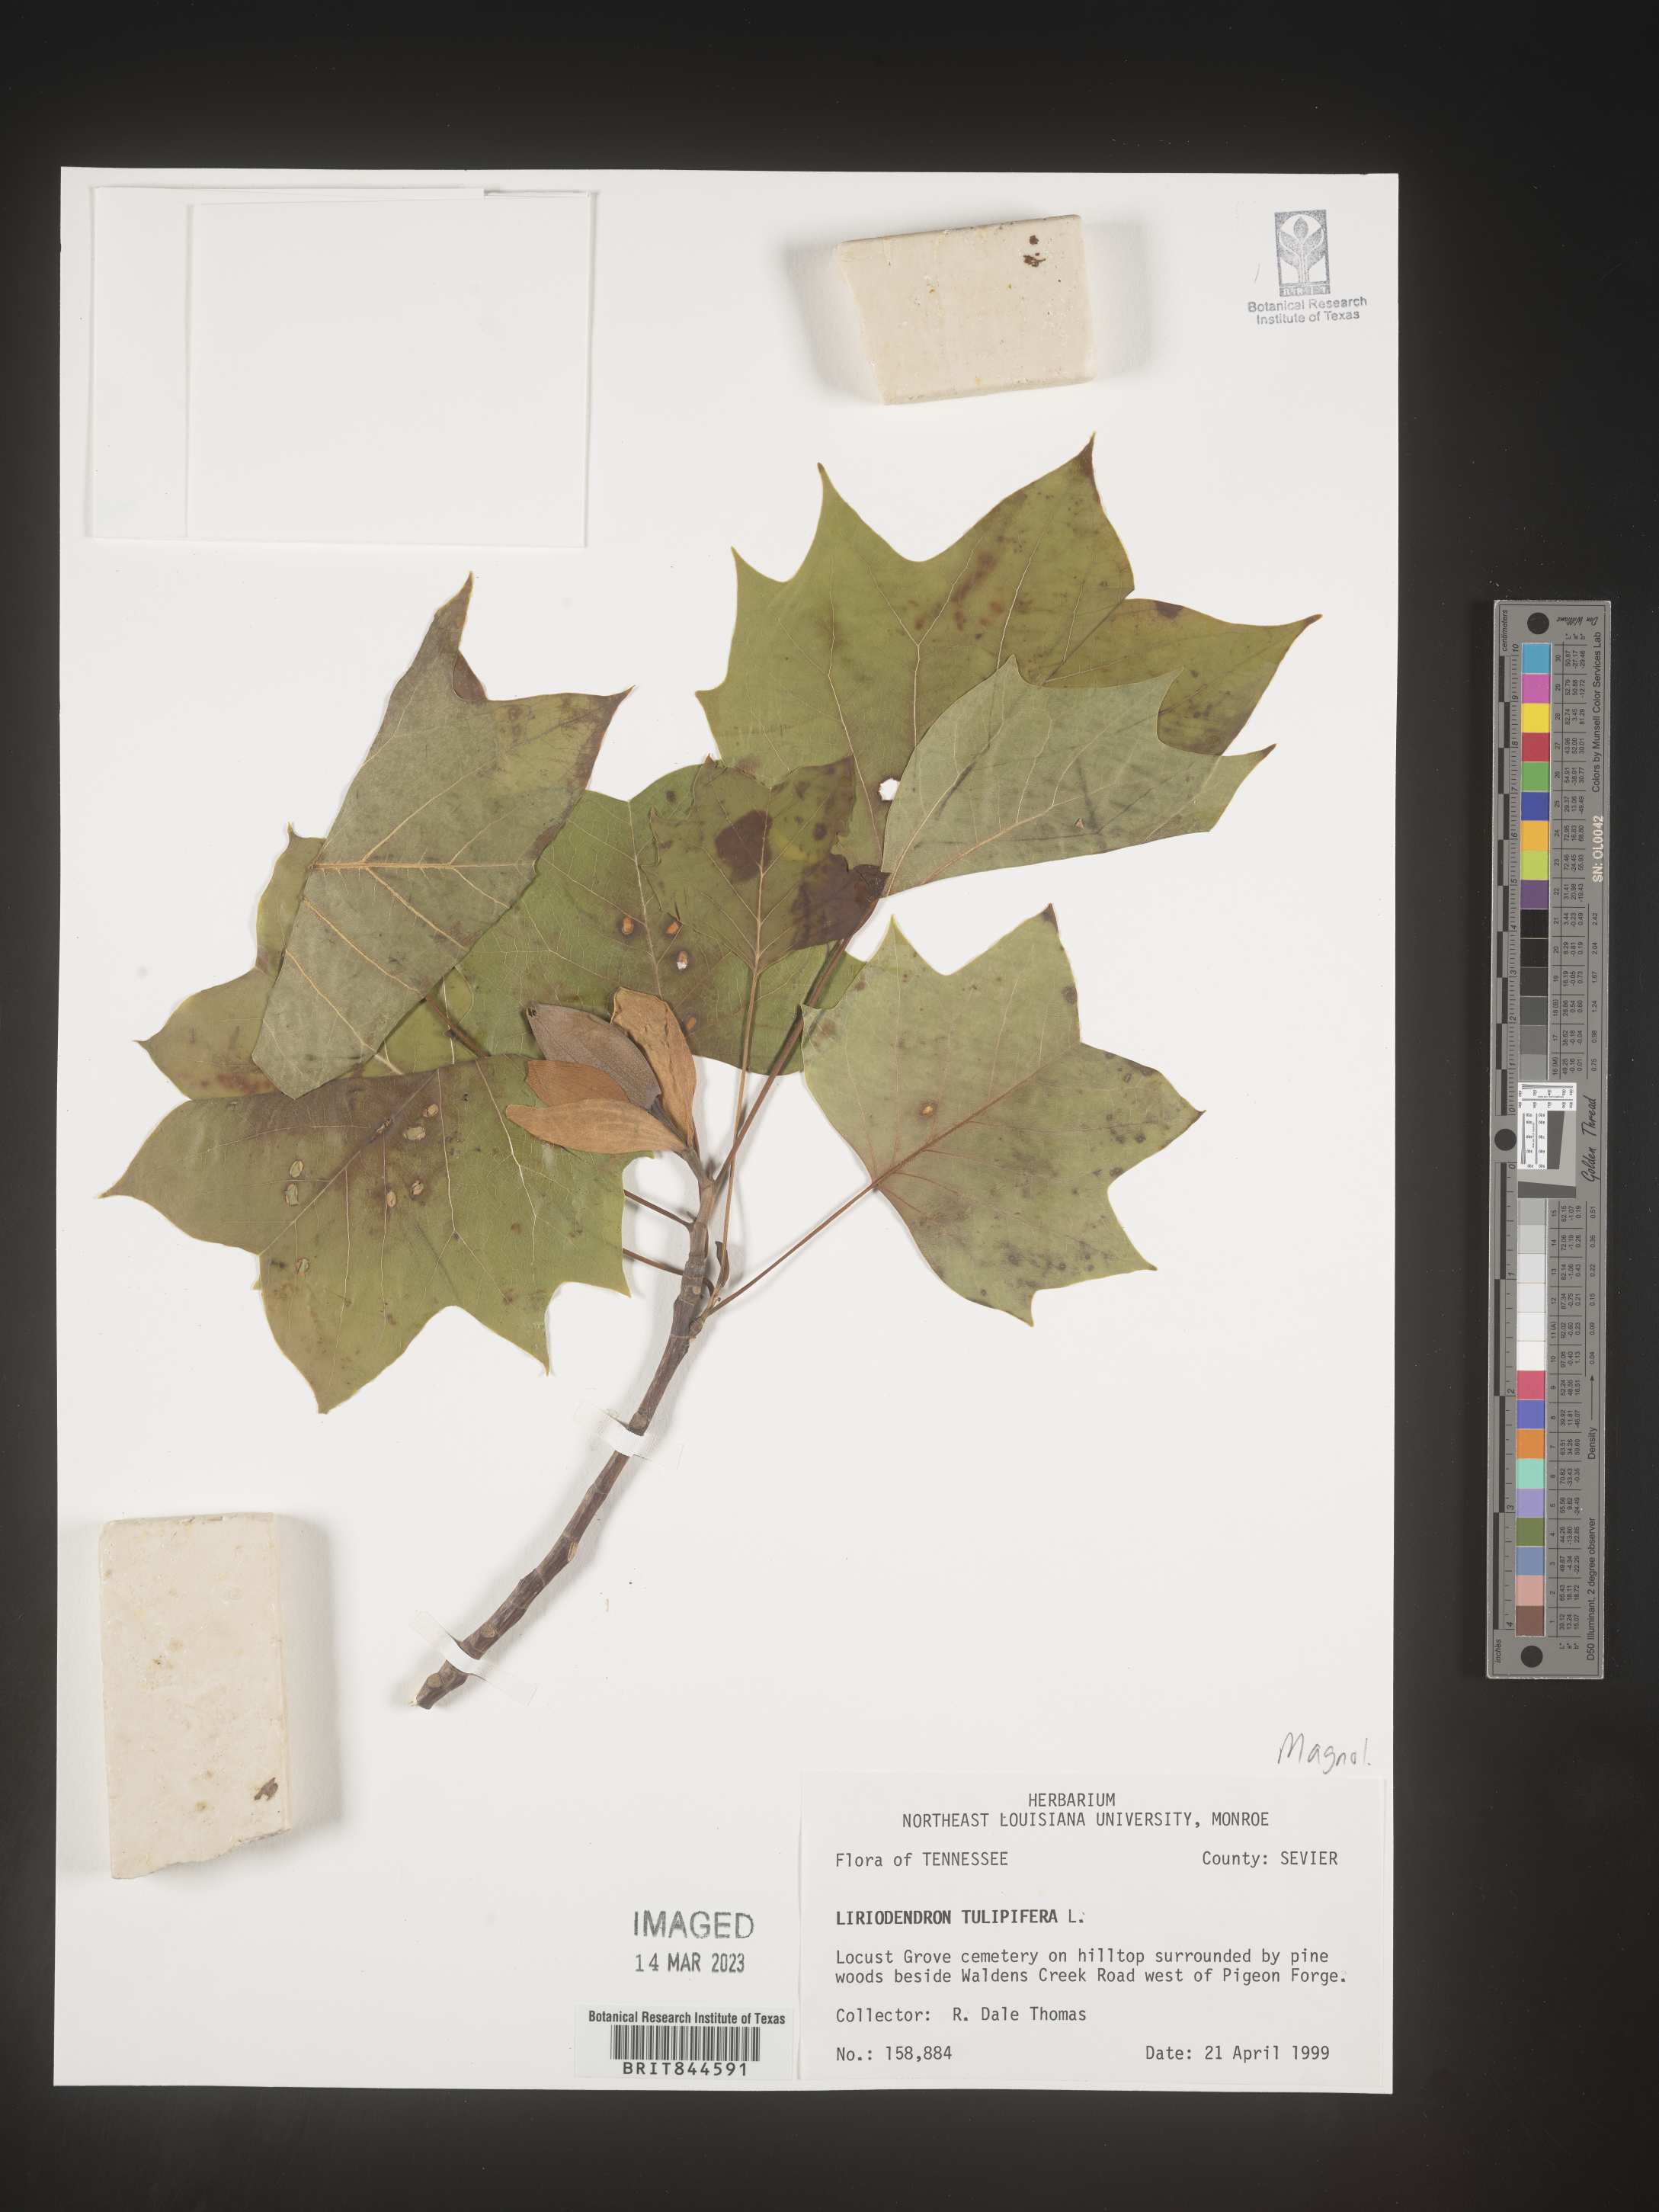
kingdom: Plantae
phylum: Tracheophyta
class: Magnoliopsida
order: Magnoliales
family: Magnoliaceae
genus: Liriodendron
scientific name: Liriodendron tulipifera
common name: Tulip tree
